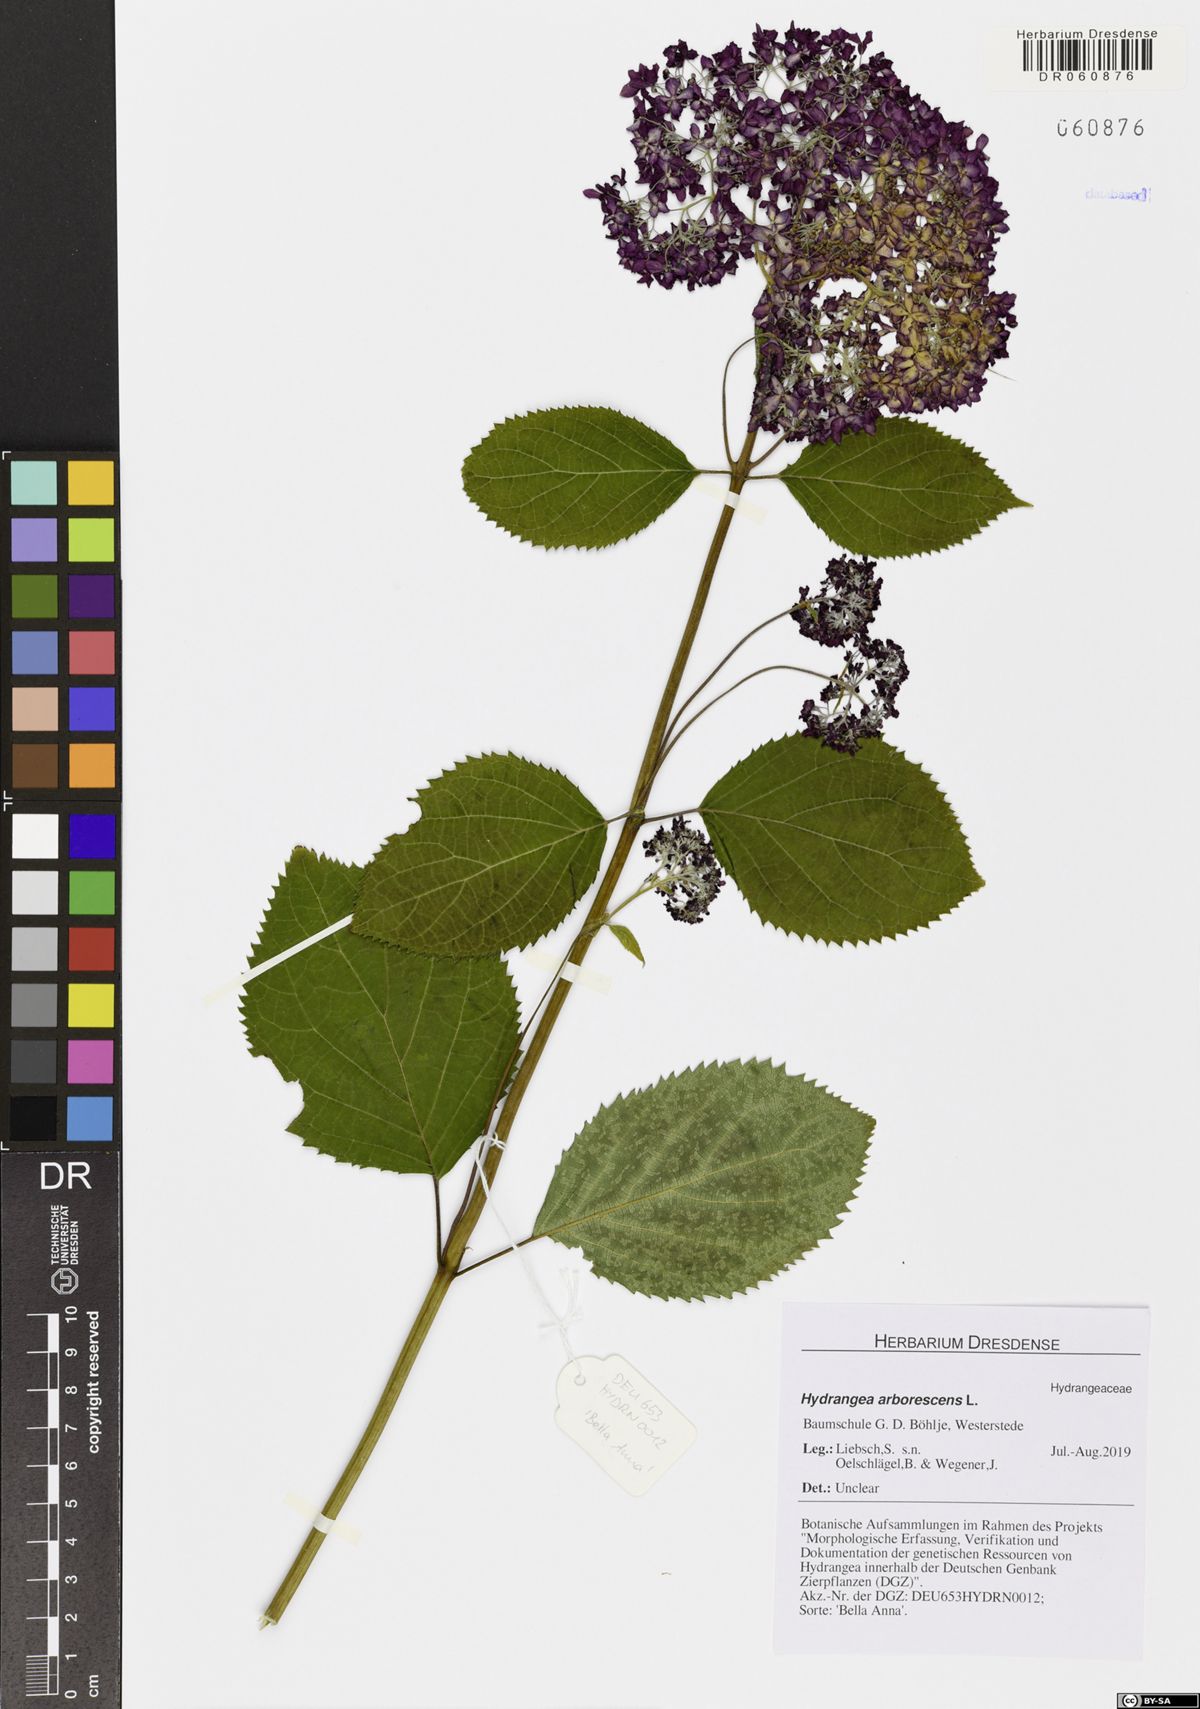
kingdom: Plantae
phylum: Tracheophyta
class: Magnoliopsida
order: Cornales
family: Hydrangeaceae
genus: Hydrangea
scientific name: Hydrangea arborescens
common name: Sevenbark
